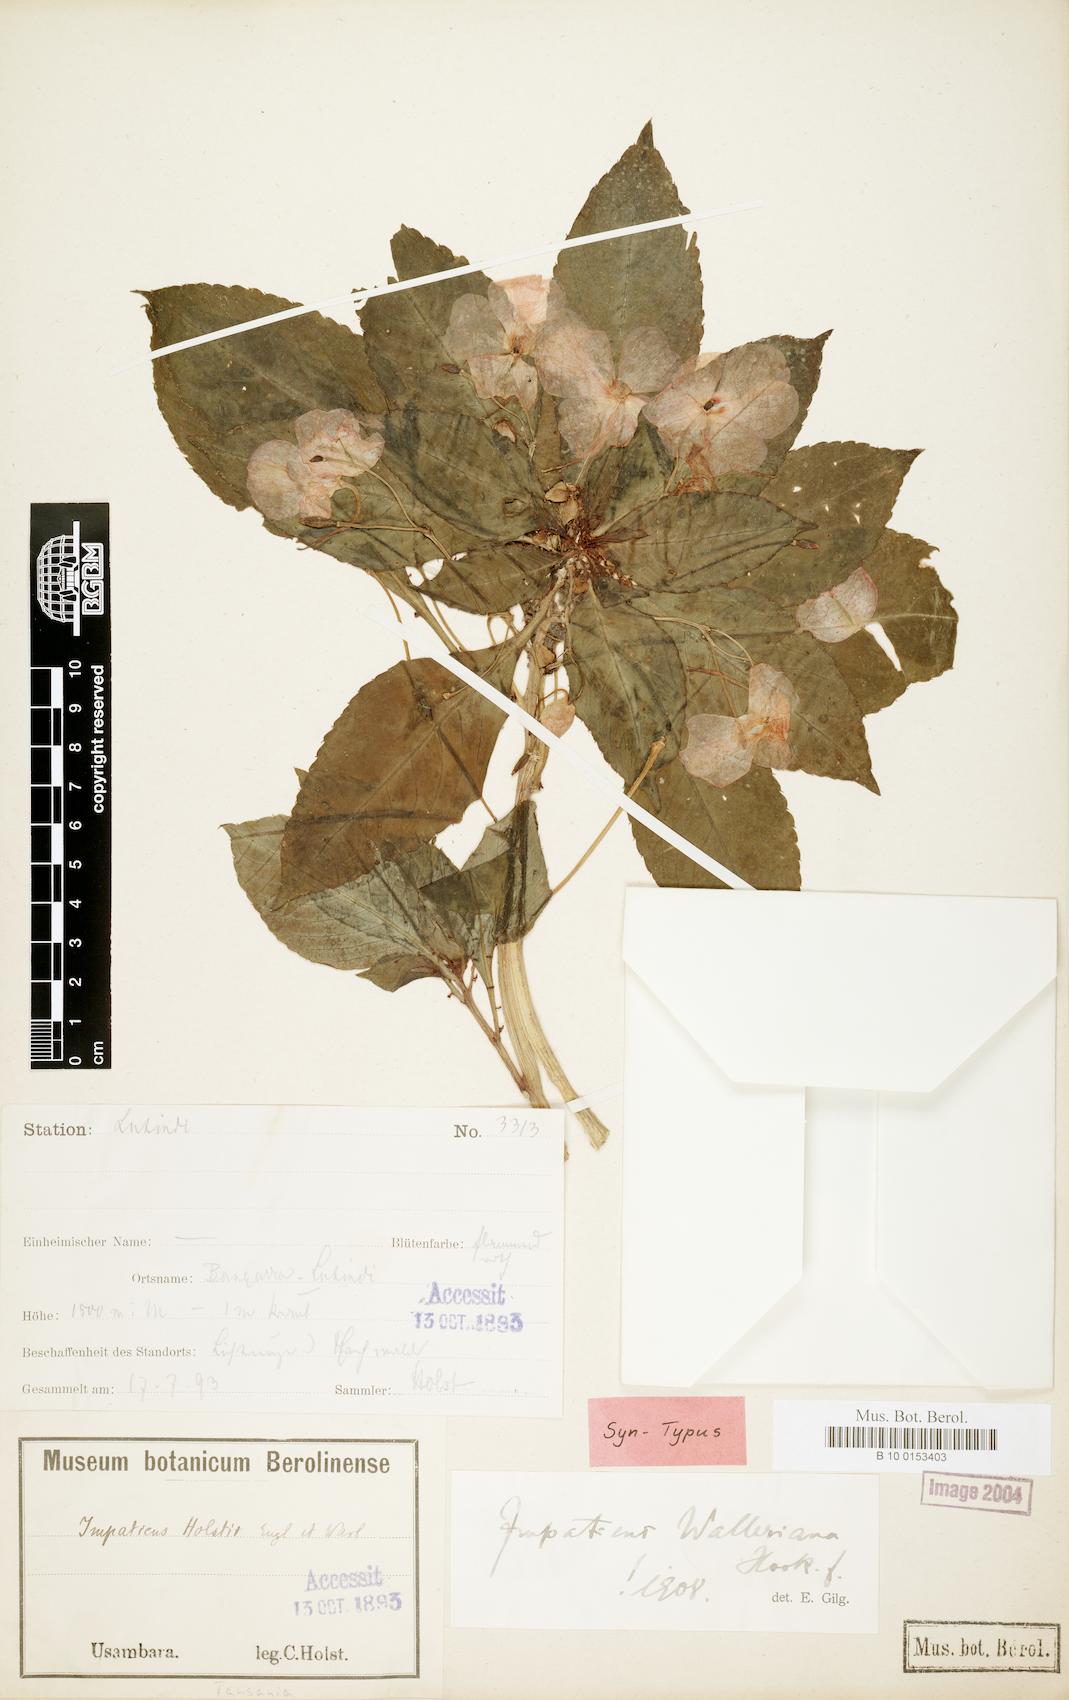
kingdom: Plantae
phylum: Tracheophyta
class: Magnoliopsida
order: Ericales
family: Balsaminaceae
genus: Impatiens
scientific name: Impatiens walleriana
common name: Buzzy lizzy
